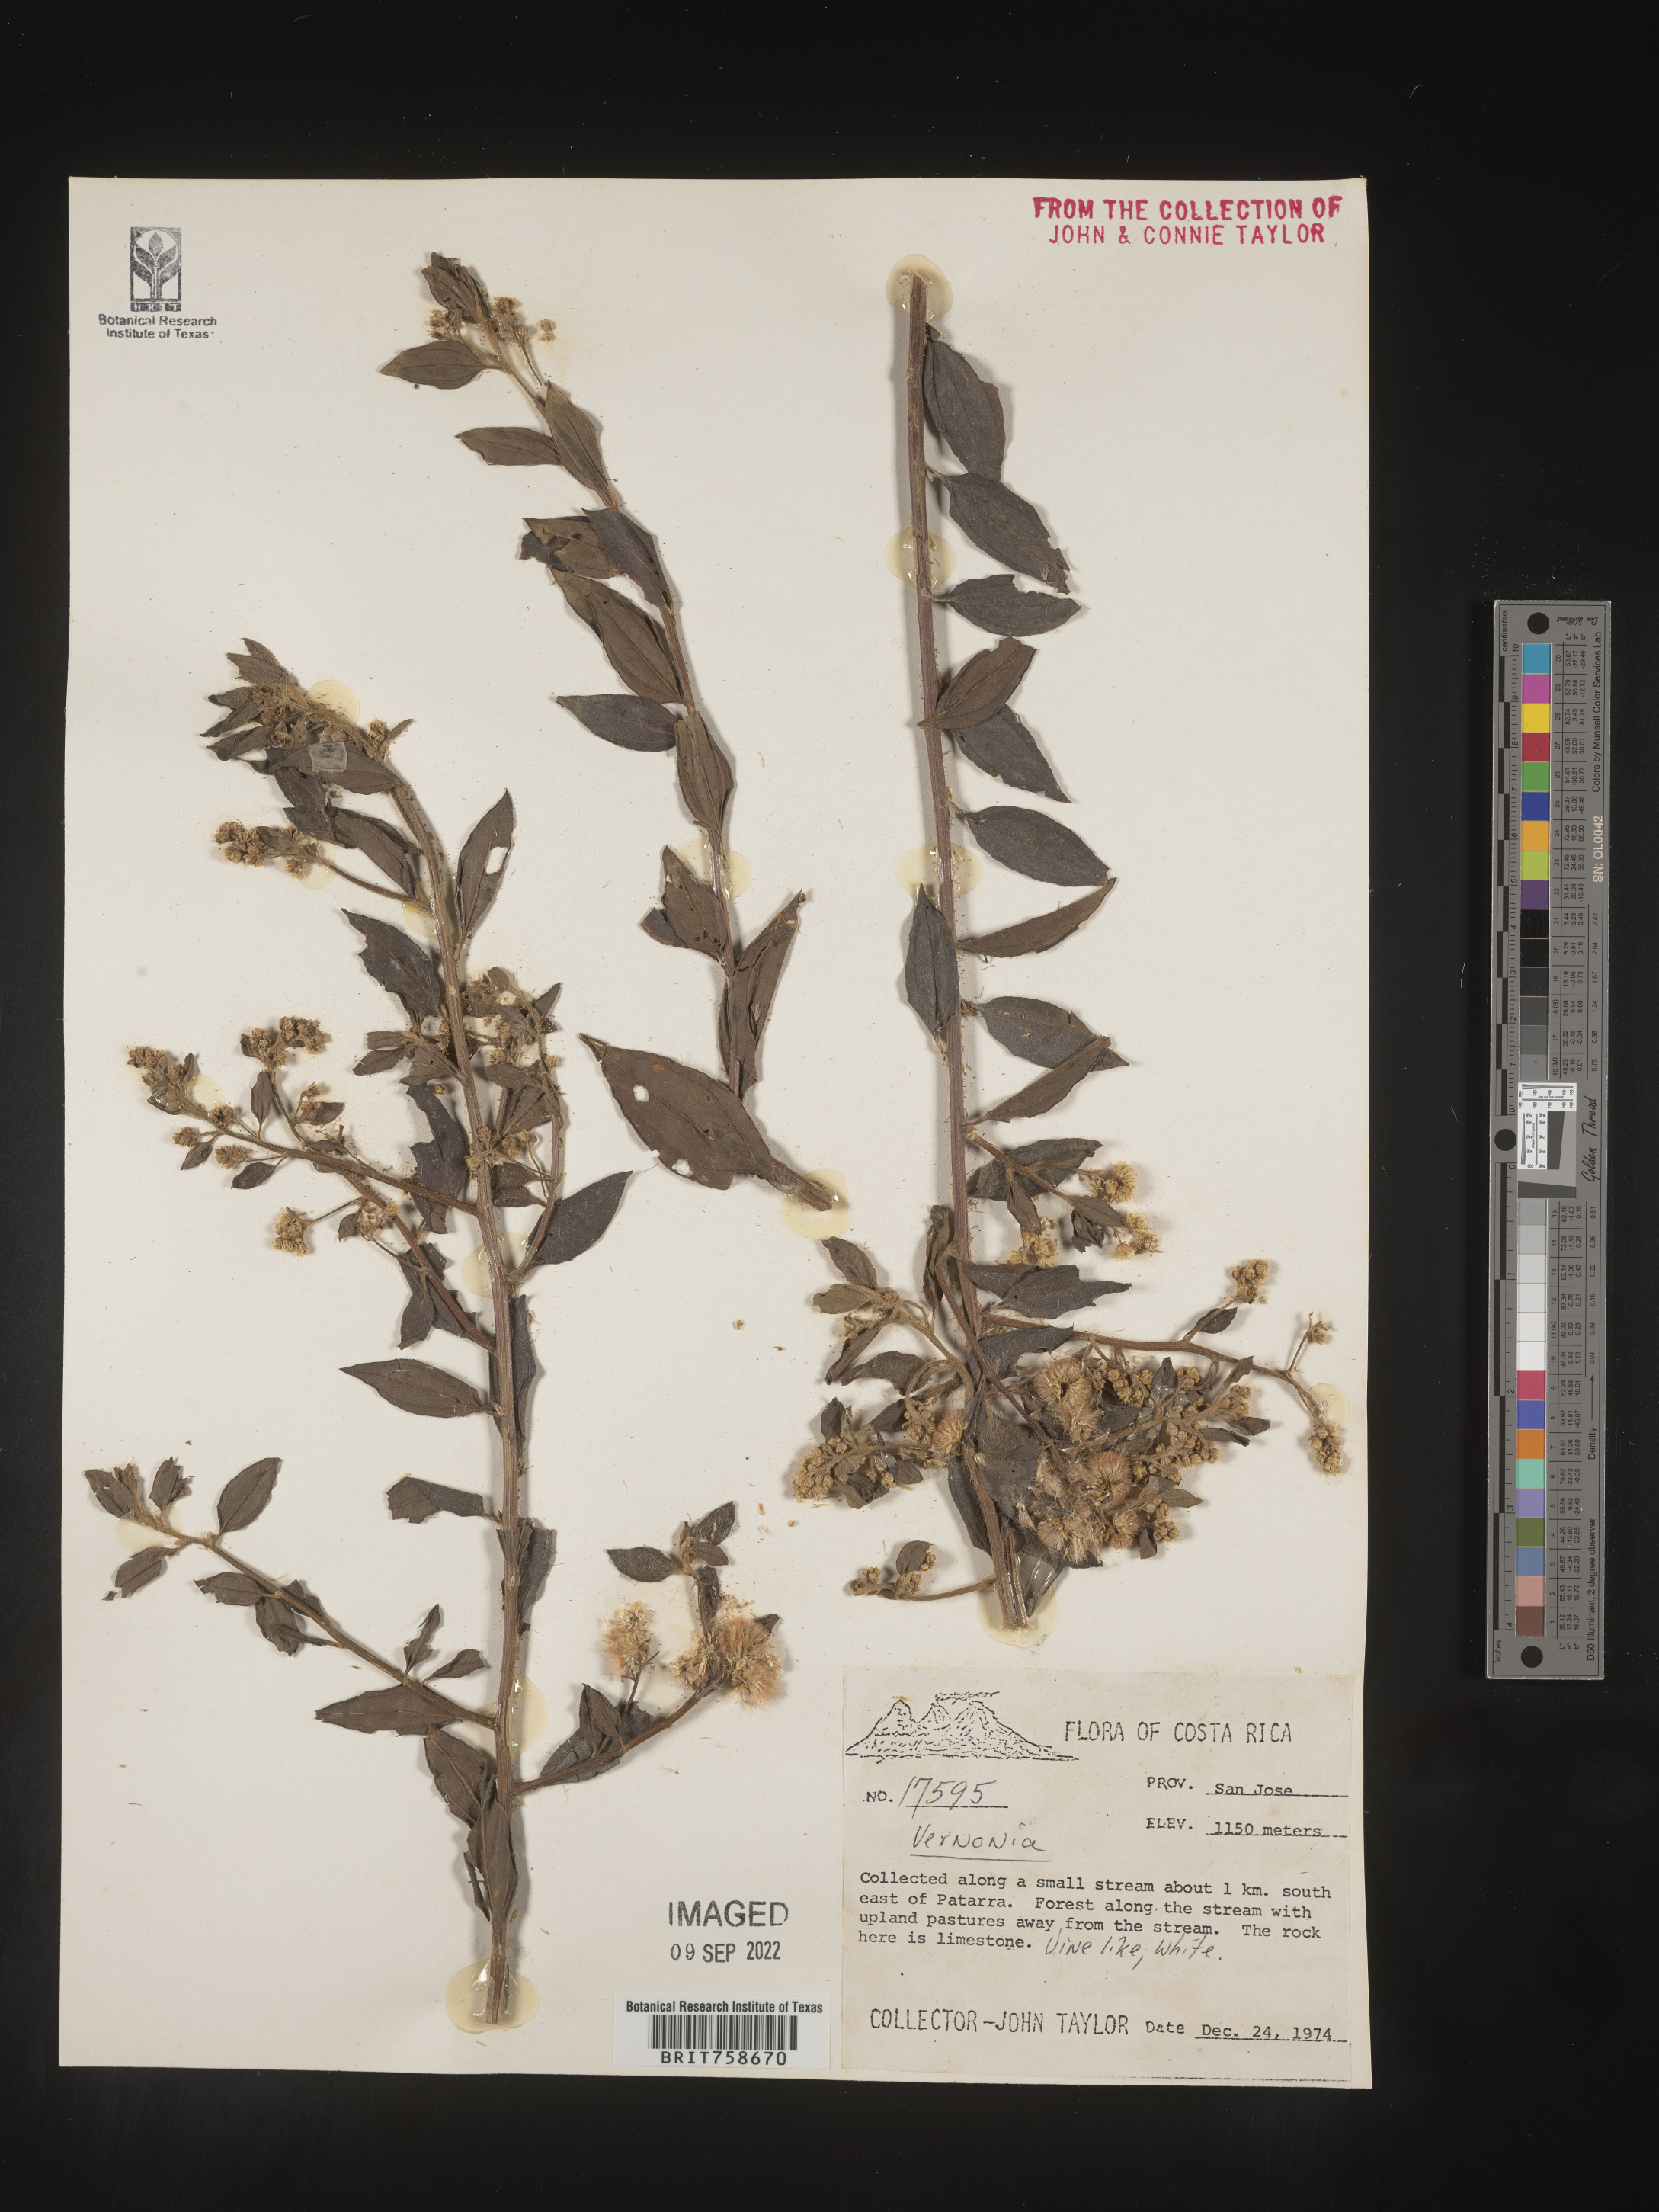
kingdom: Plantae
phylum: Tracheophyta
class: Magnoliopsida
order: Asterales
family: Asteraceae
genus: Vernonia
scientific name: Vernonia
